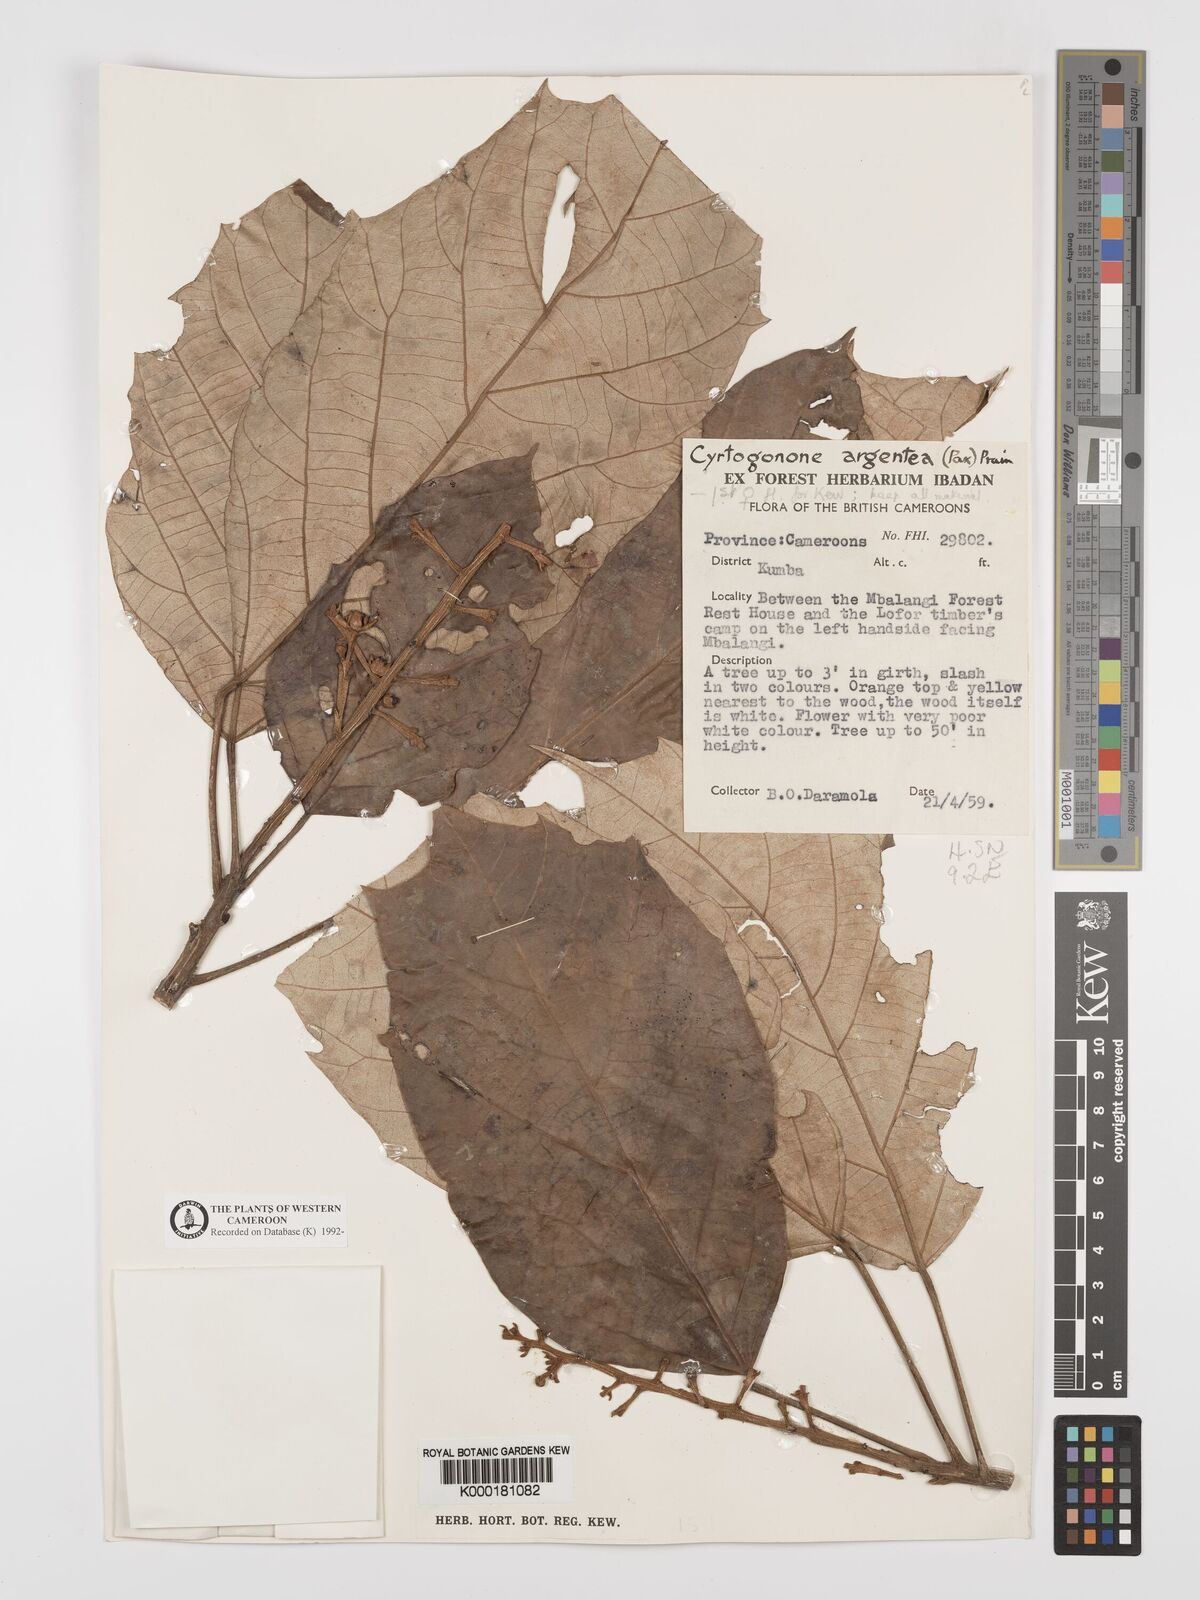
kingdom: Plantae
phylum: Tracheophyta
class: Magnoliopsida
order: Malpighiales
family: Euphorbiaceae
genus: Cyrtogonone
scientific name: Cyrtogonone argentea
